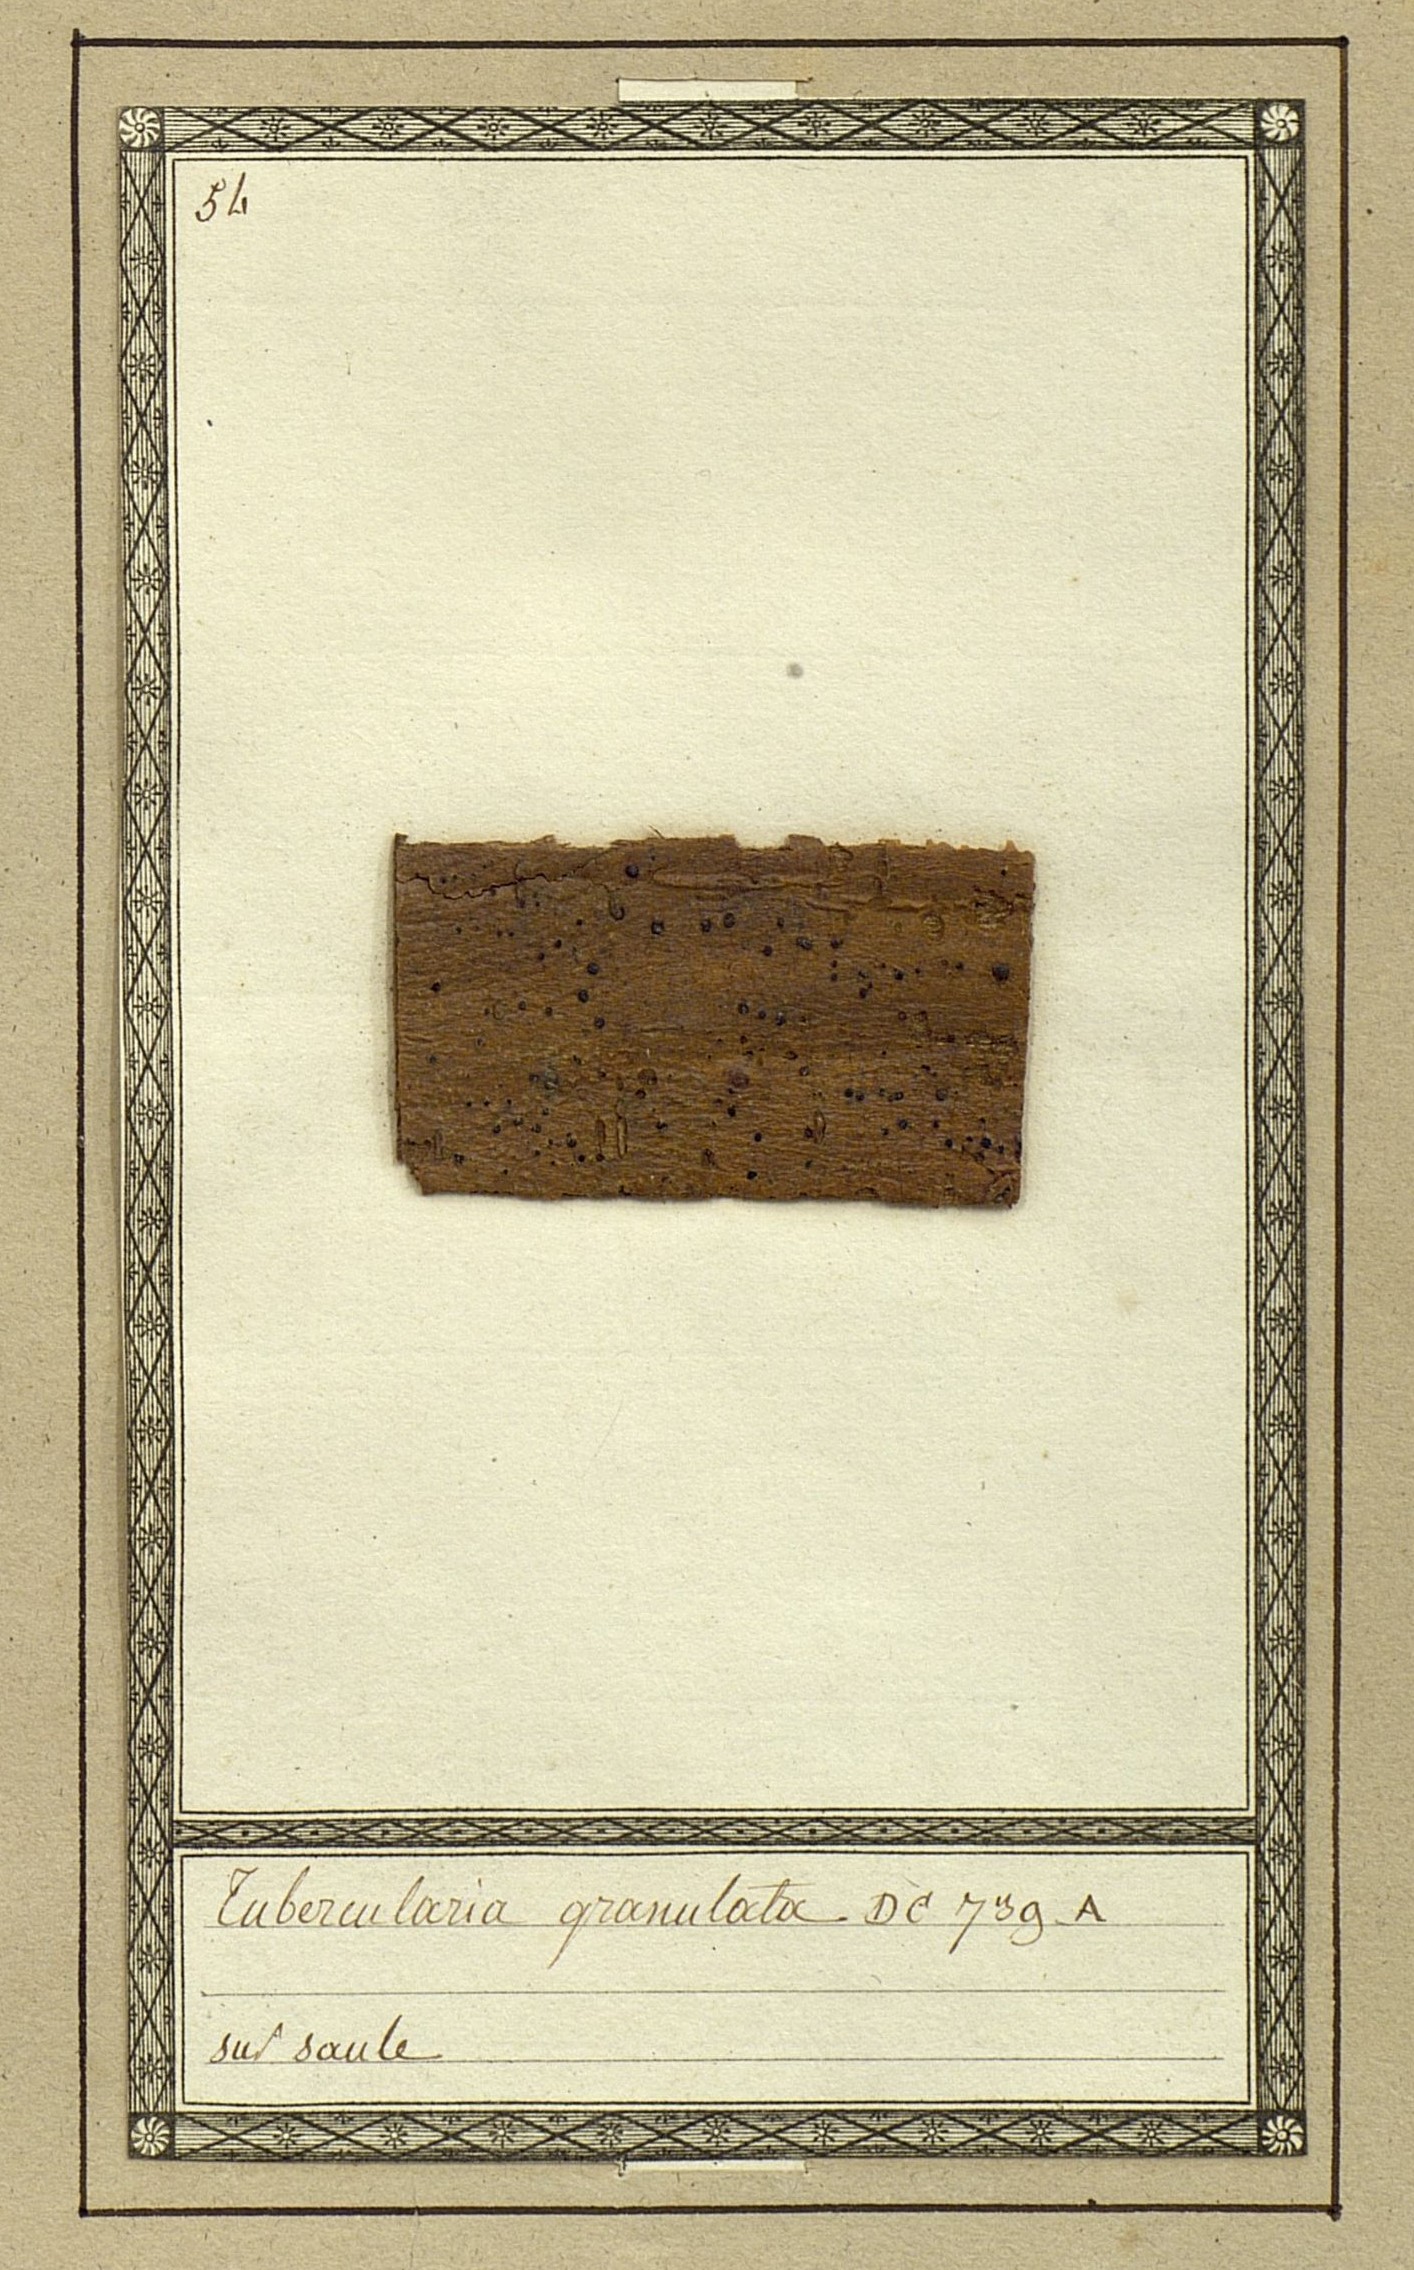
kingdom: Fungi
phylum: Ascomycota
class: Sordariomycetes
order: Hypocreales
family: Nectriaceae
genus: Tubercularia
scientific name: Tubercularia granulata
